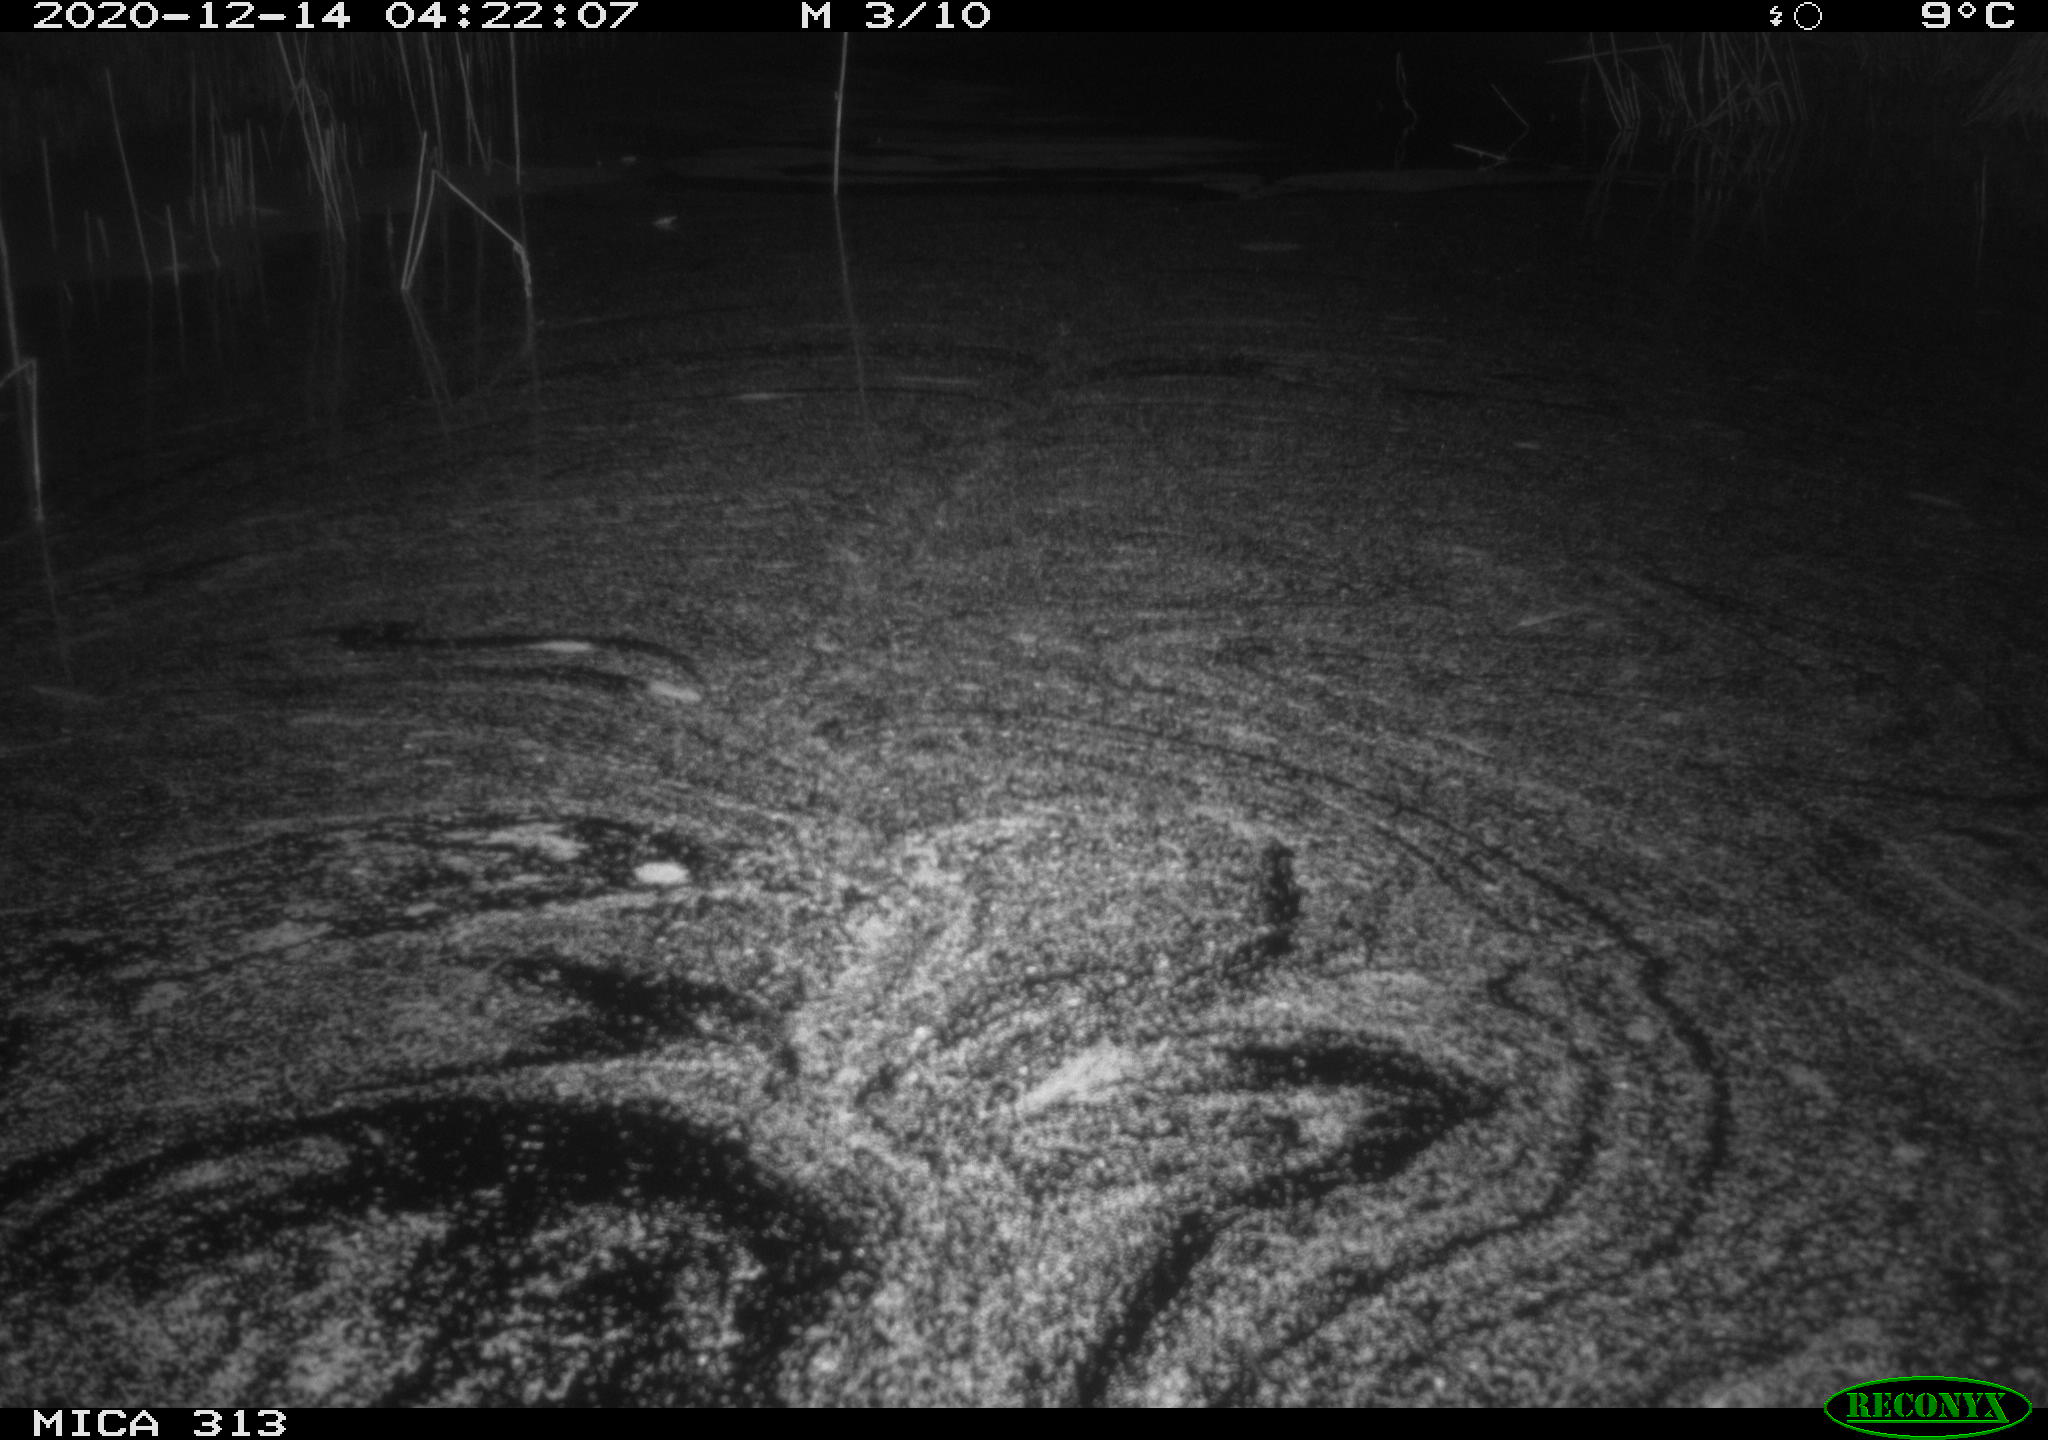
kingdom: Animalia
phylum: Chordata
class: Mammalia
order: Rodentia
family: Muridae
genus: Rattus
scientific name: Rattus norvegicus
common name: Brown rat
